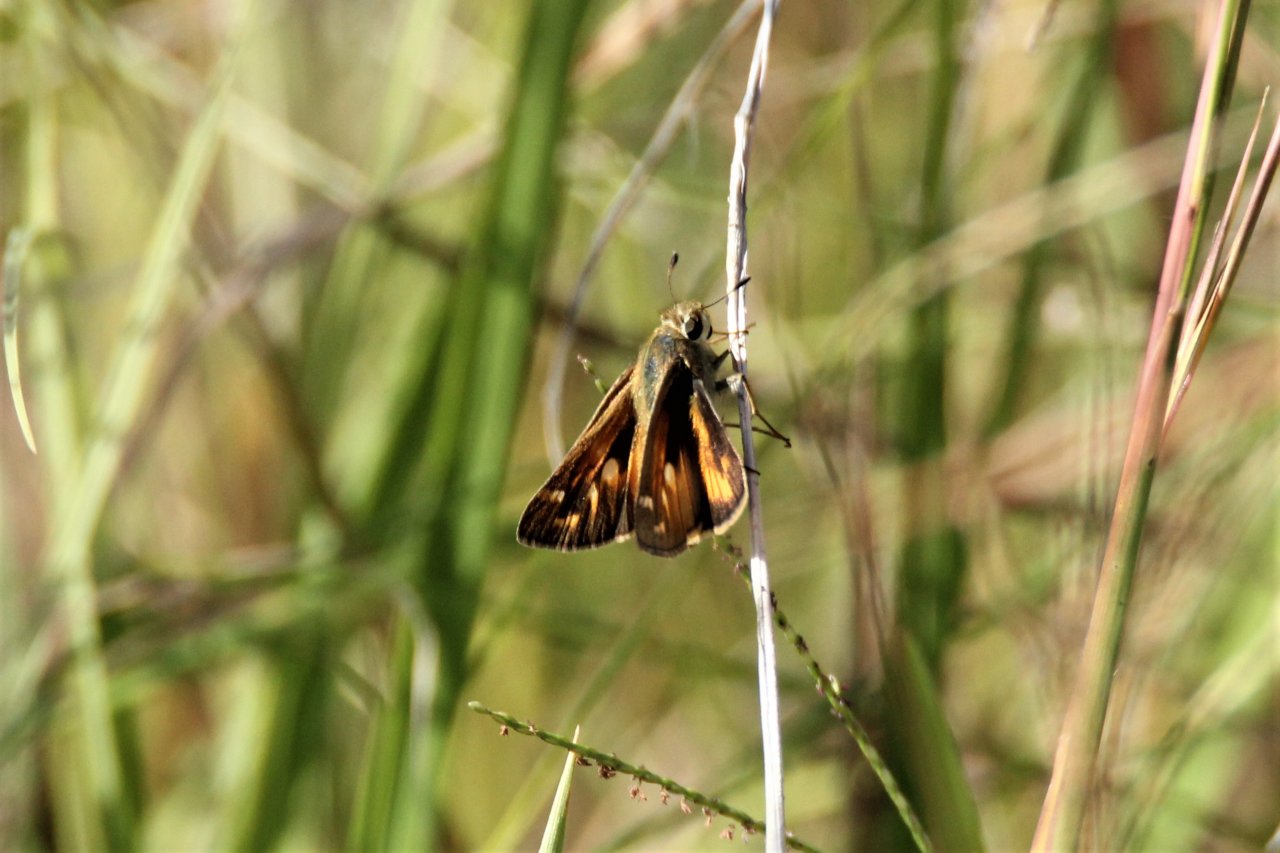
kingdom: Animalia
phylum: Arthropoda
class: Insecta
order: Lepidoptera
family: Hesperiidae
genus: Atalopedes
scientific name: Atalopedes campestris
